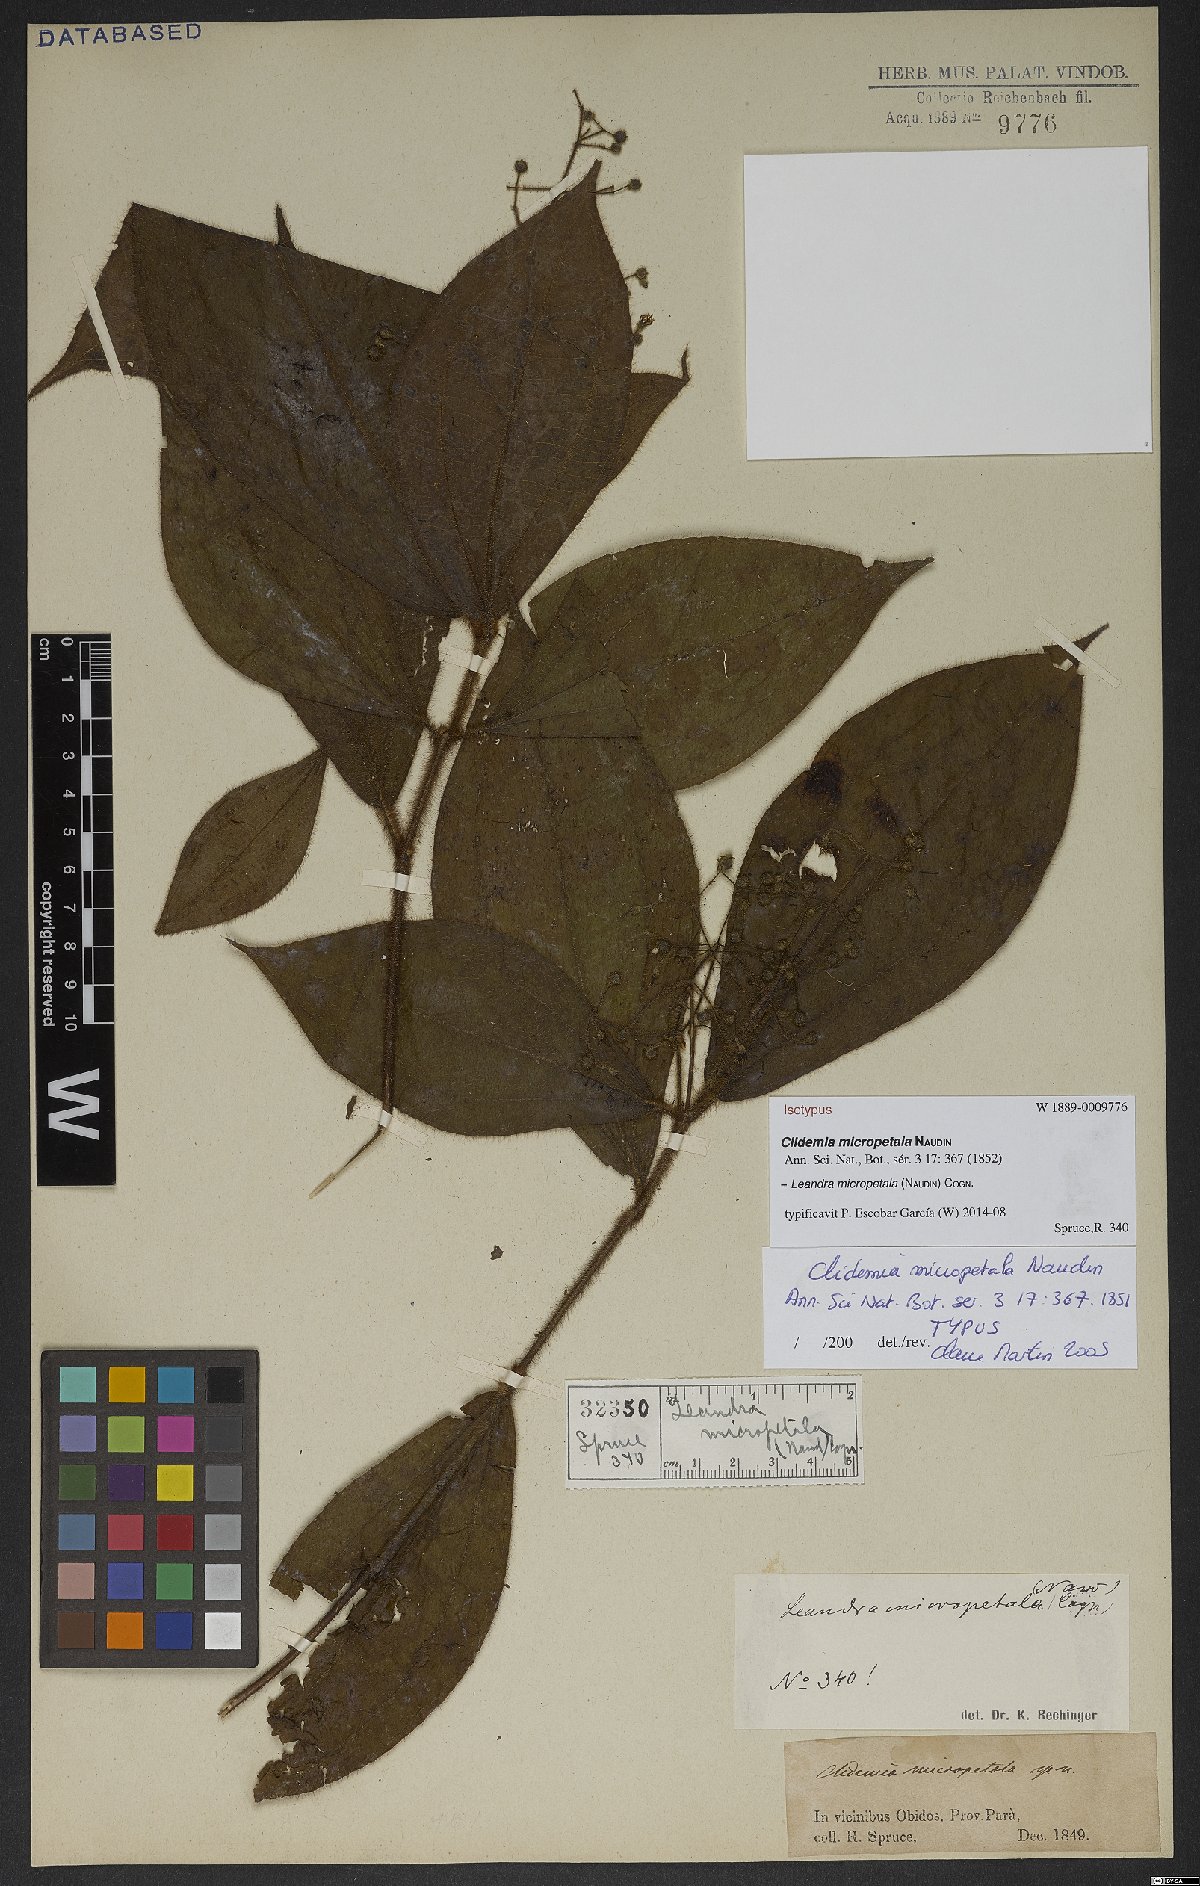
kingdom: Plantae
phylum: Tracheophyta
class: Magnoliopsida
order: Myrtales
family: Melastomataceae
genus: Miconia
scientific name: Miconia nanopetala
